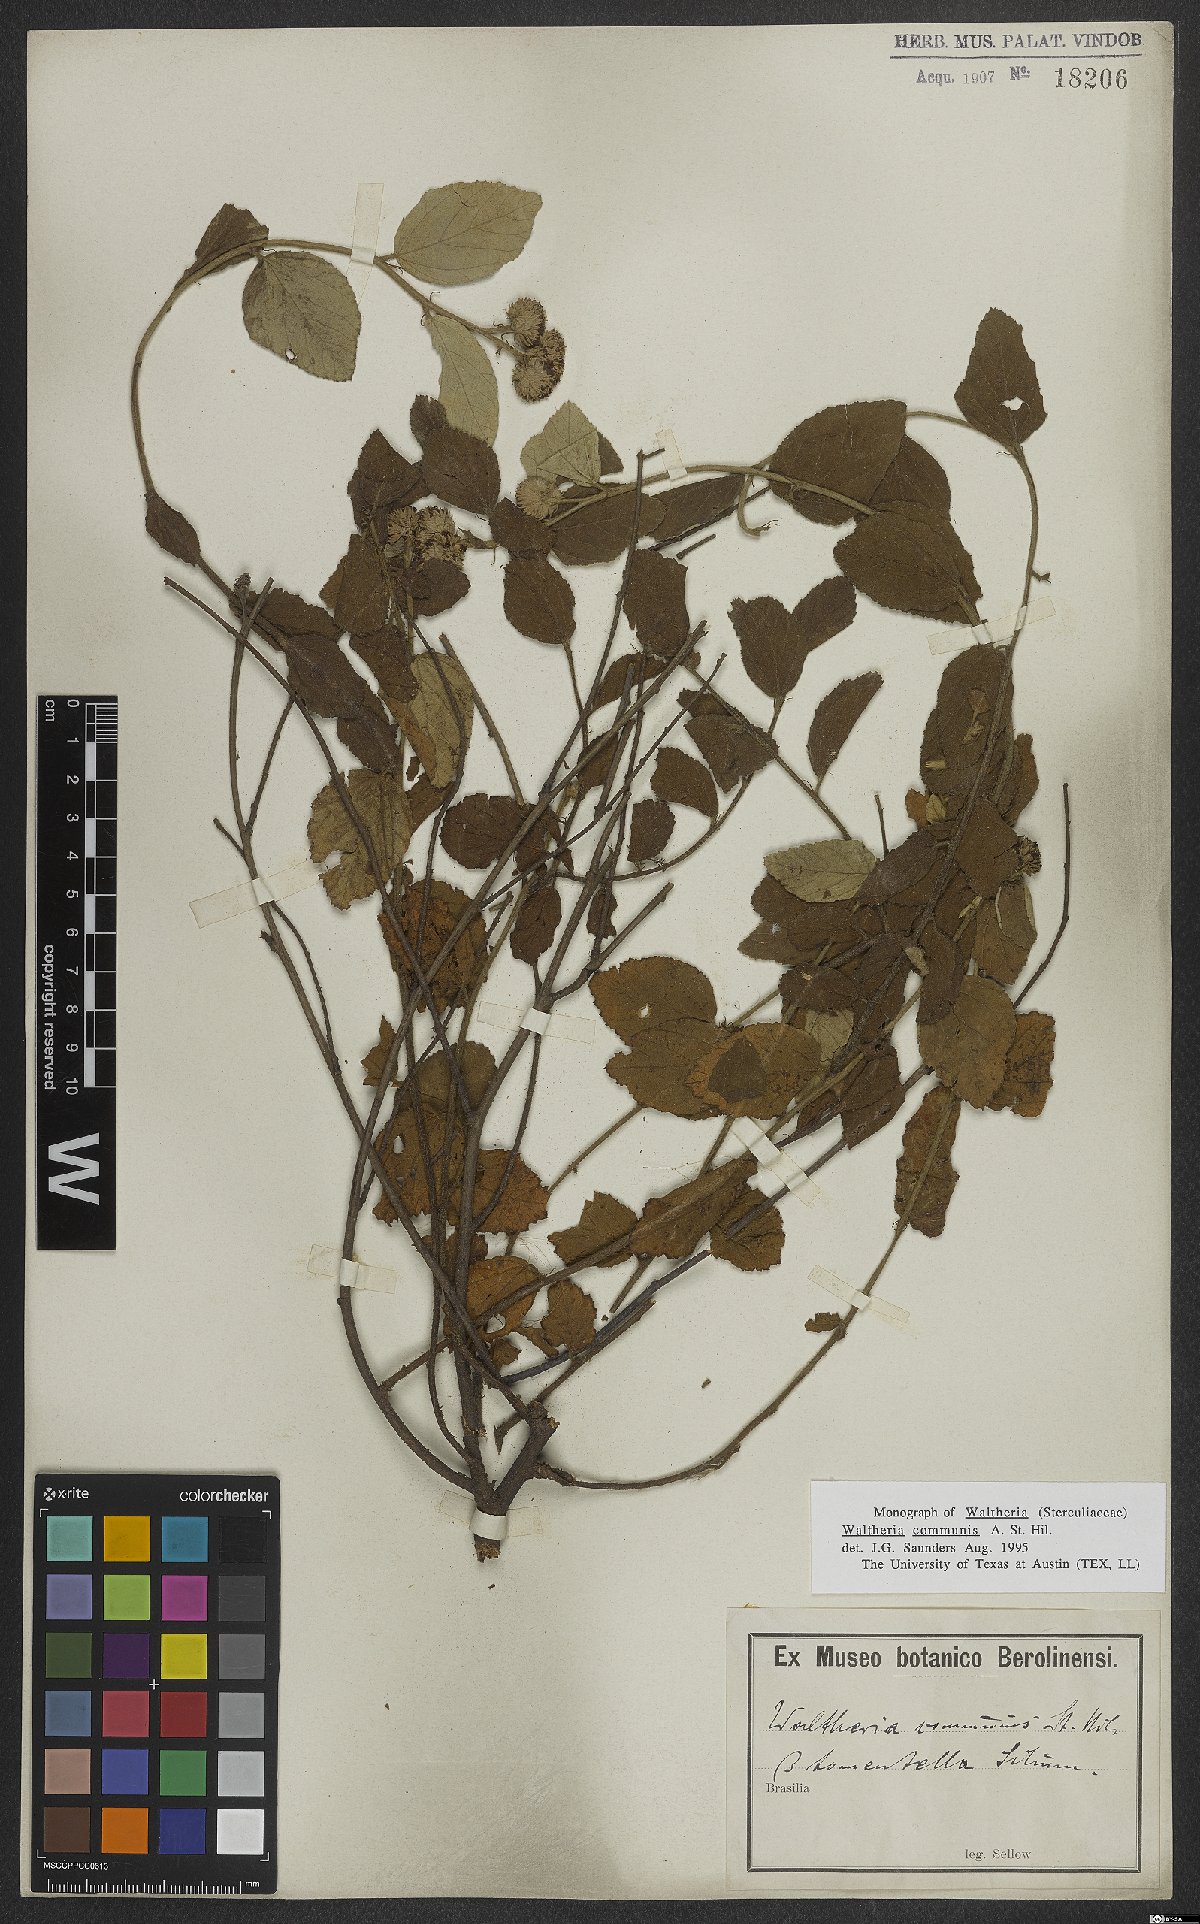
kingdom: Plantae
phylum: Tracheophyta
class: Magnoliopsida
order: Malvales
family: Malvaceae
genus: Waltheria
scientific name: Waltheria communis
